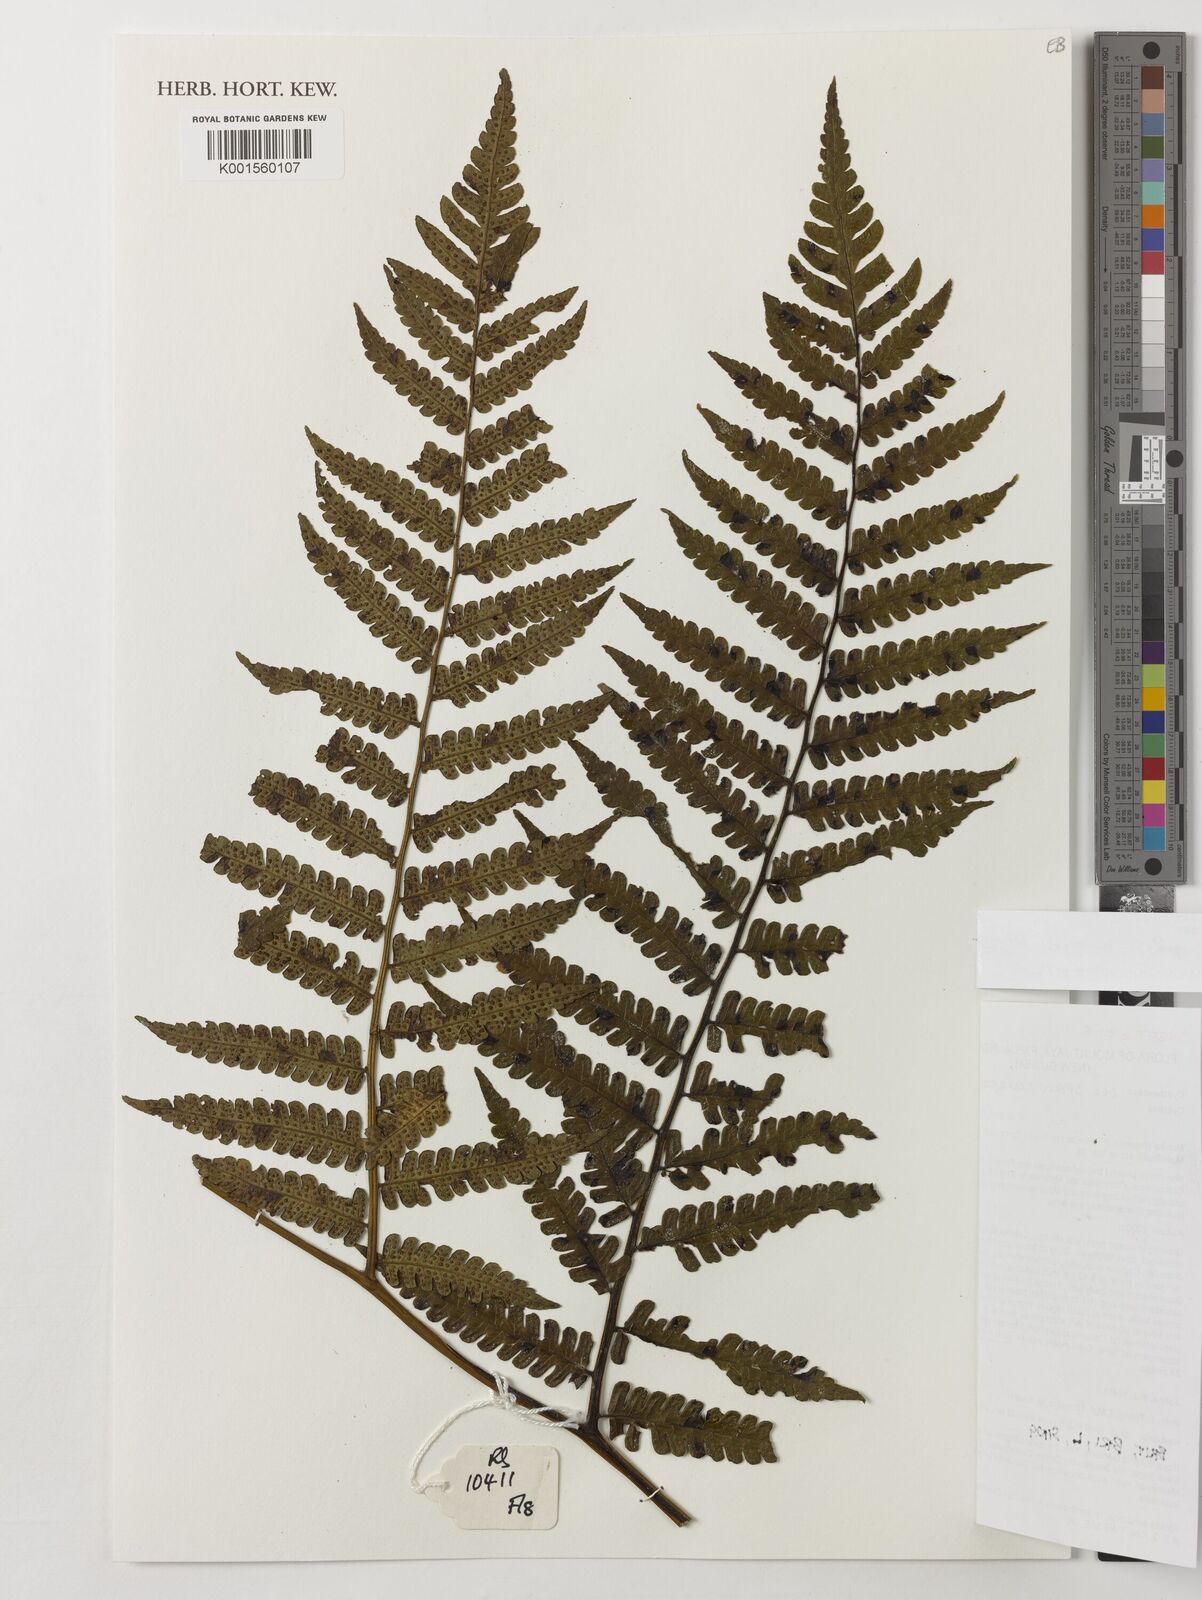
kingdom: Plantae
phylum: Tracheophyta
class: Polypodiopsida
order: Cyatheales
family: Cyatheaceae
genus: Sphaeropteris
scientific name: Sphaeropteris runensis
